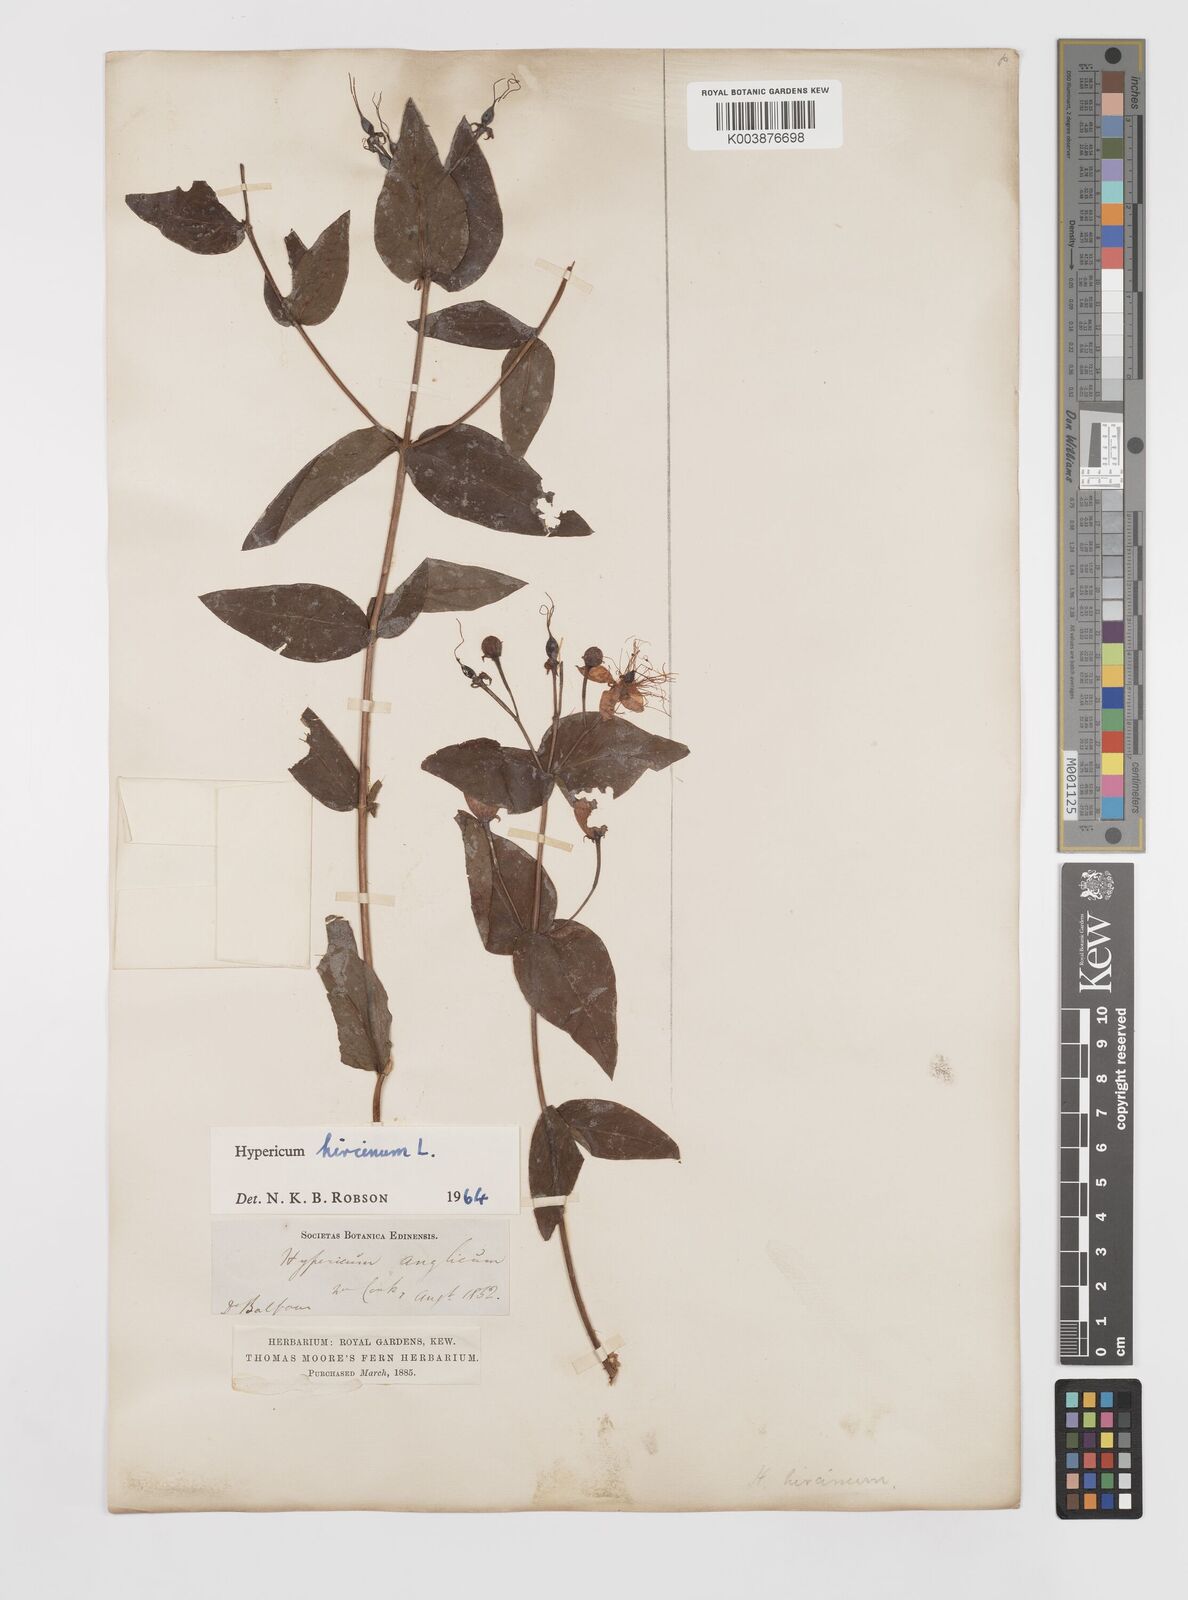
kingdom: Plantae
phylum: Tracheophyta
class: Magnoliopsida
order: Malpighiales
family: Hypericaceae
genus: Hypericum
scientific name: Hypericum hircinum
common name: Stinking tutsan
